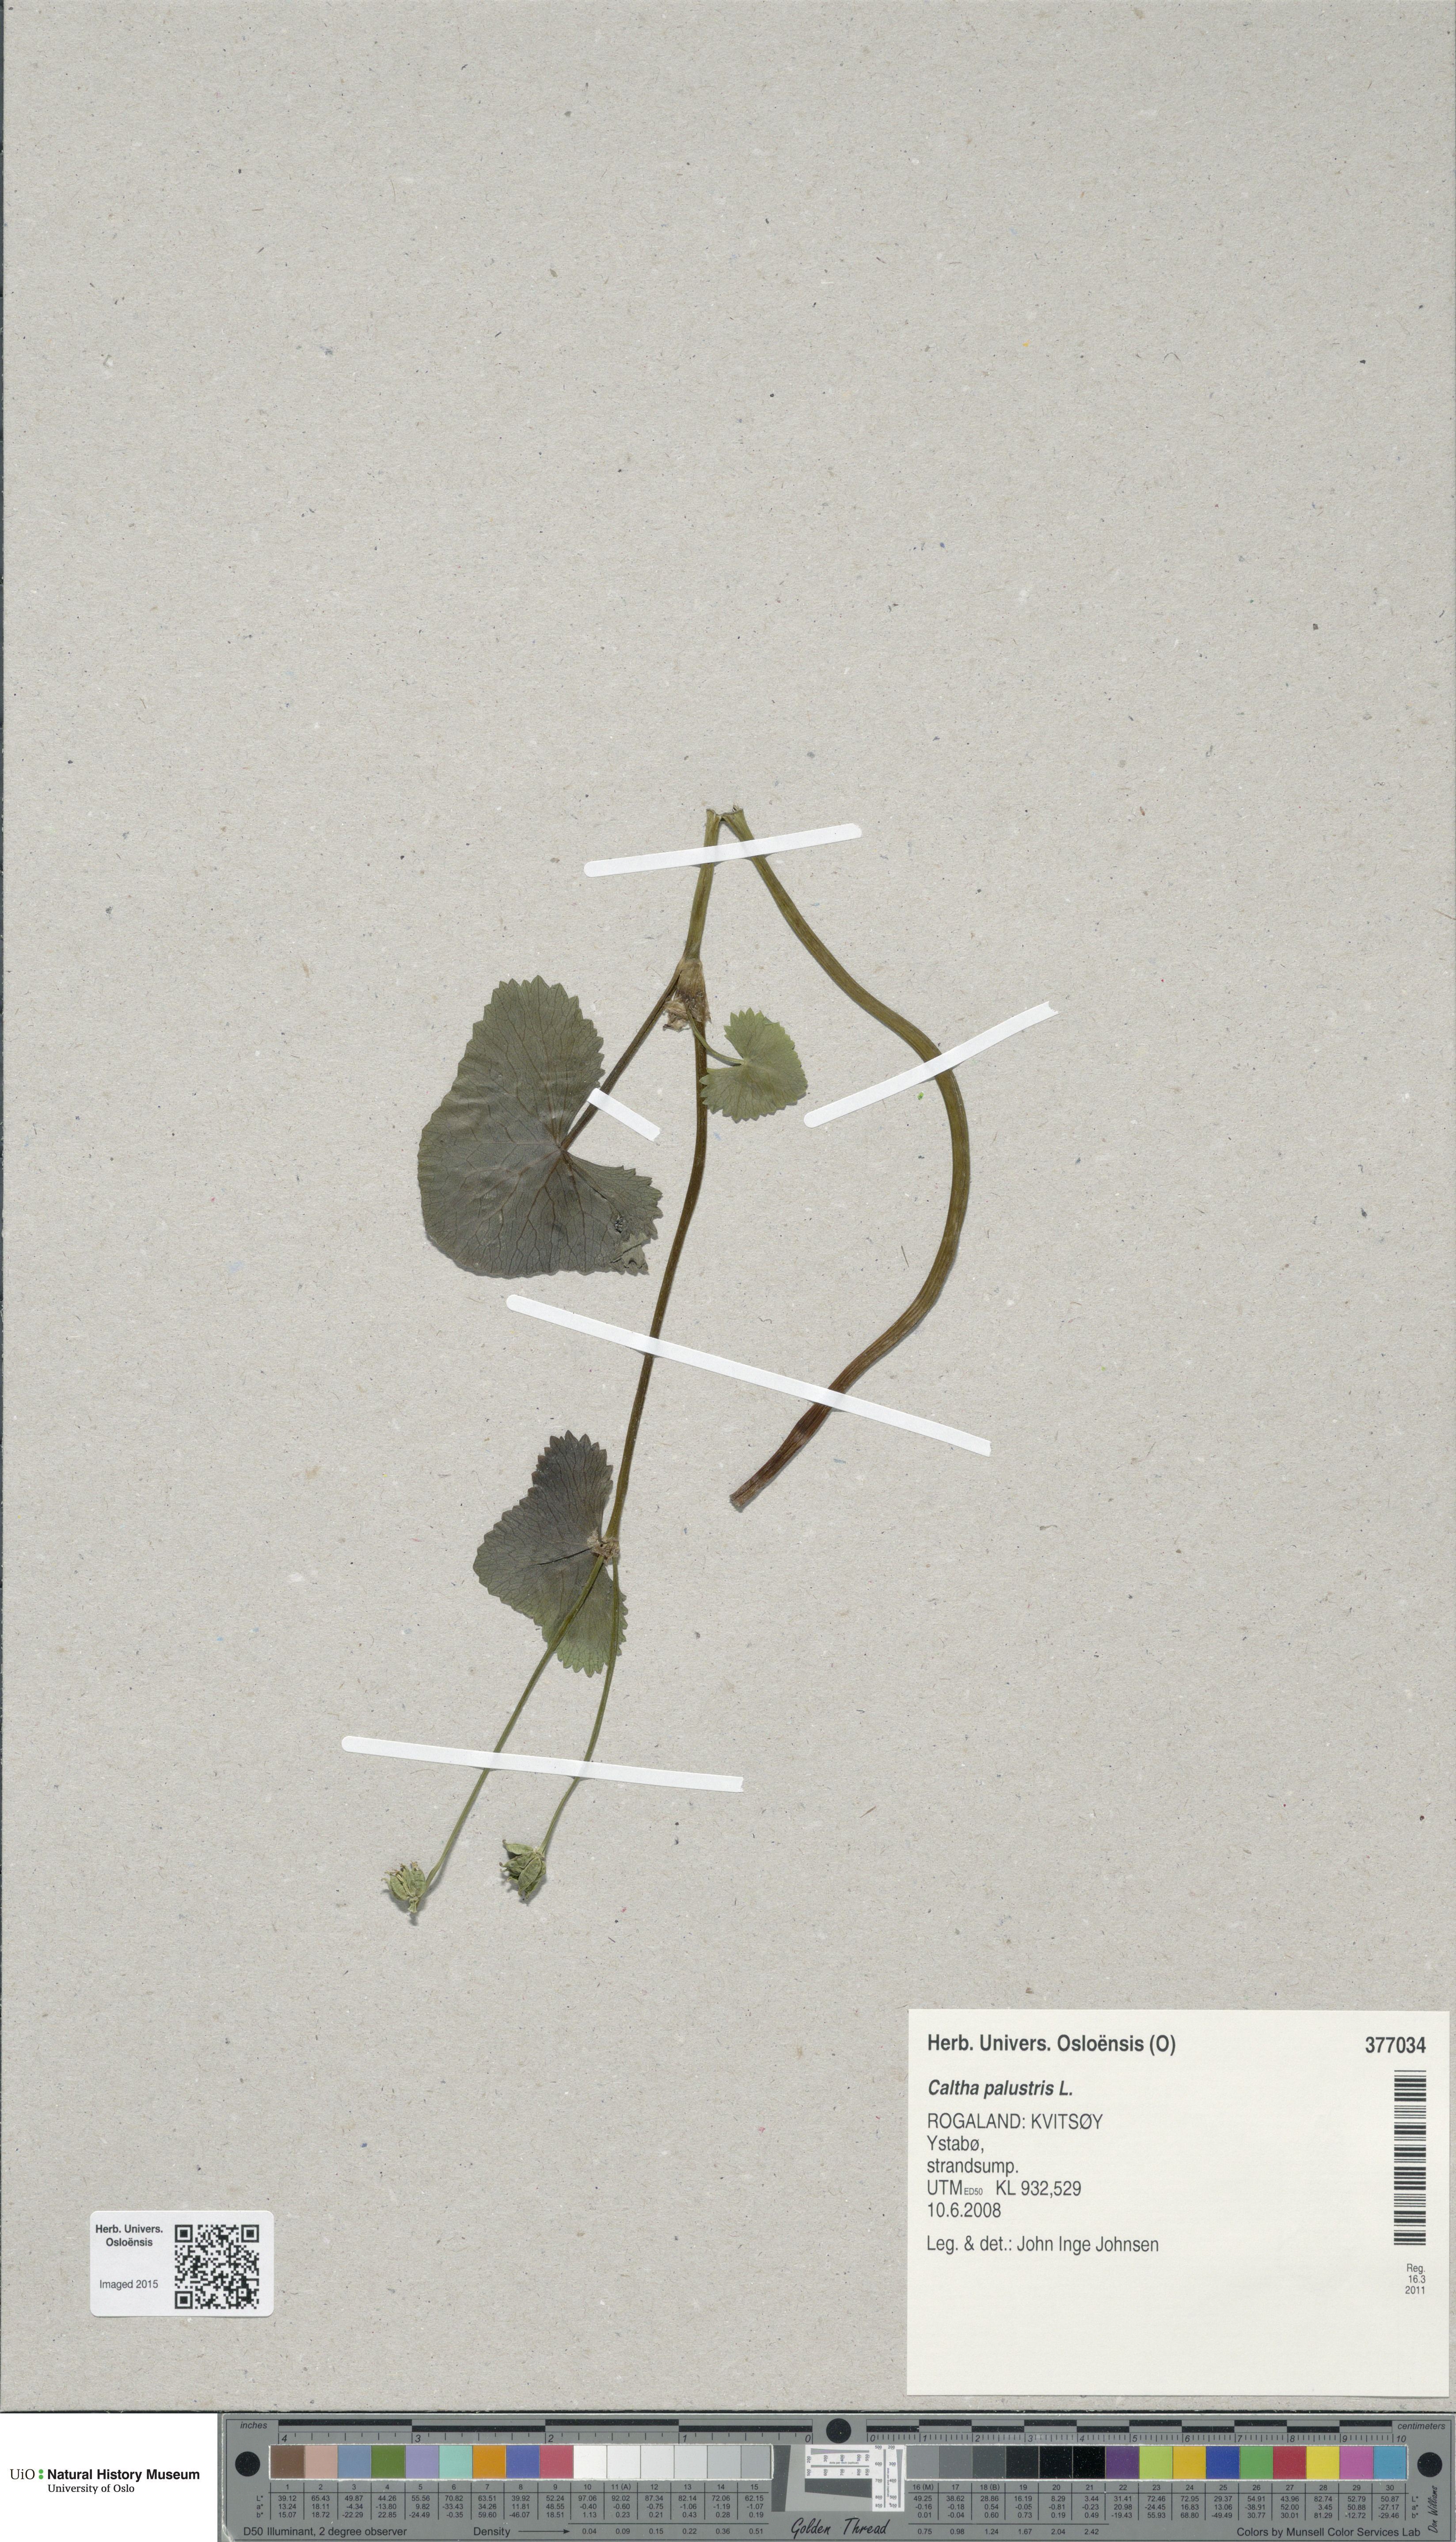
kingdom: Plantae
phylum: Tracheophyta
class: Magnoliopsida
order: Ranunculales
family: Ranunculaceae
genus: Caltha
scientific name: Caltha palustris
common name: Marsh marigold
